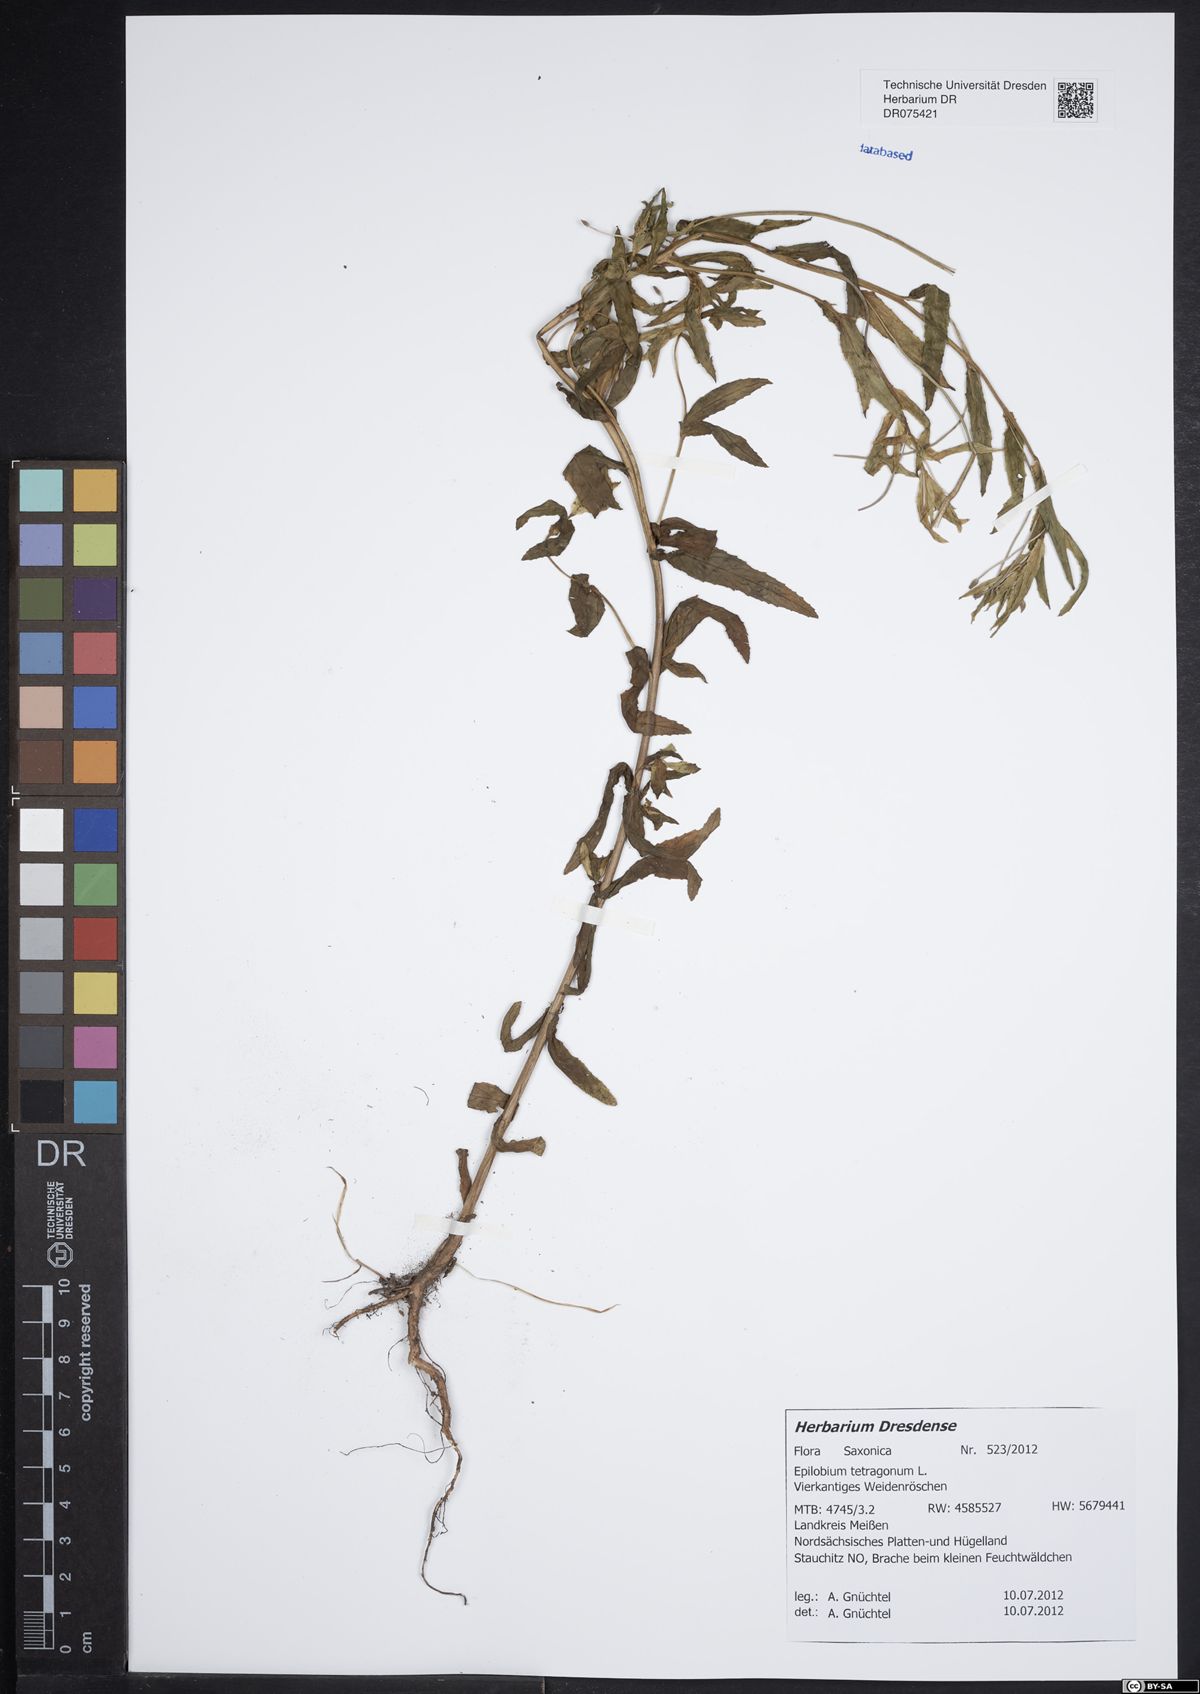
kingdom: Plantae
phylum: Tracheophyta
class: Magnoliopsida
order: Myrtales
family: Onagraceae
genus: Epilobium
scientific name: Epilobium tetragonum
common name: Square-stemmed willowherb
